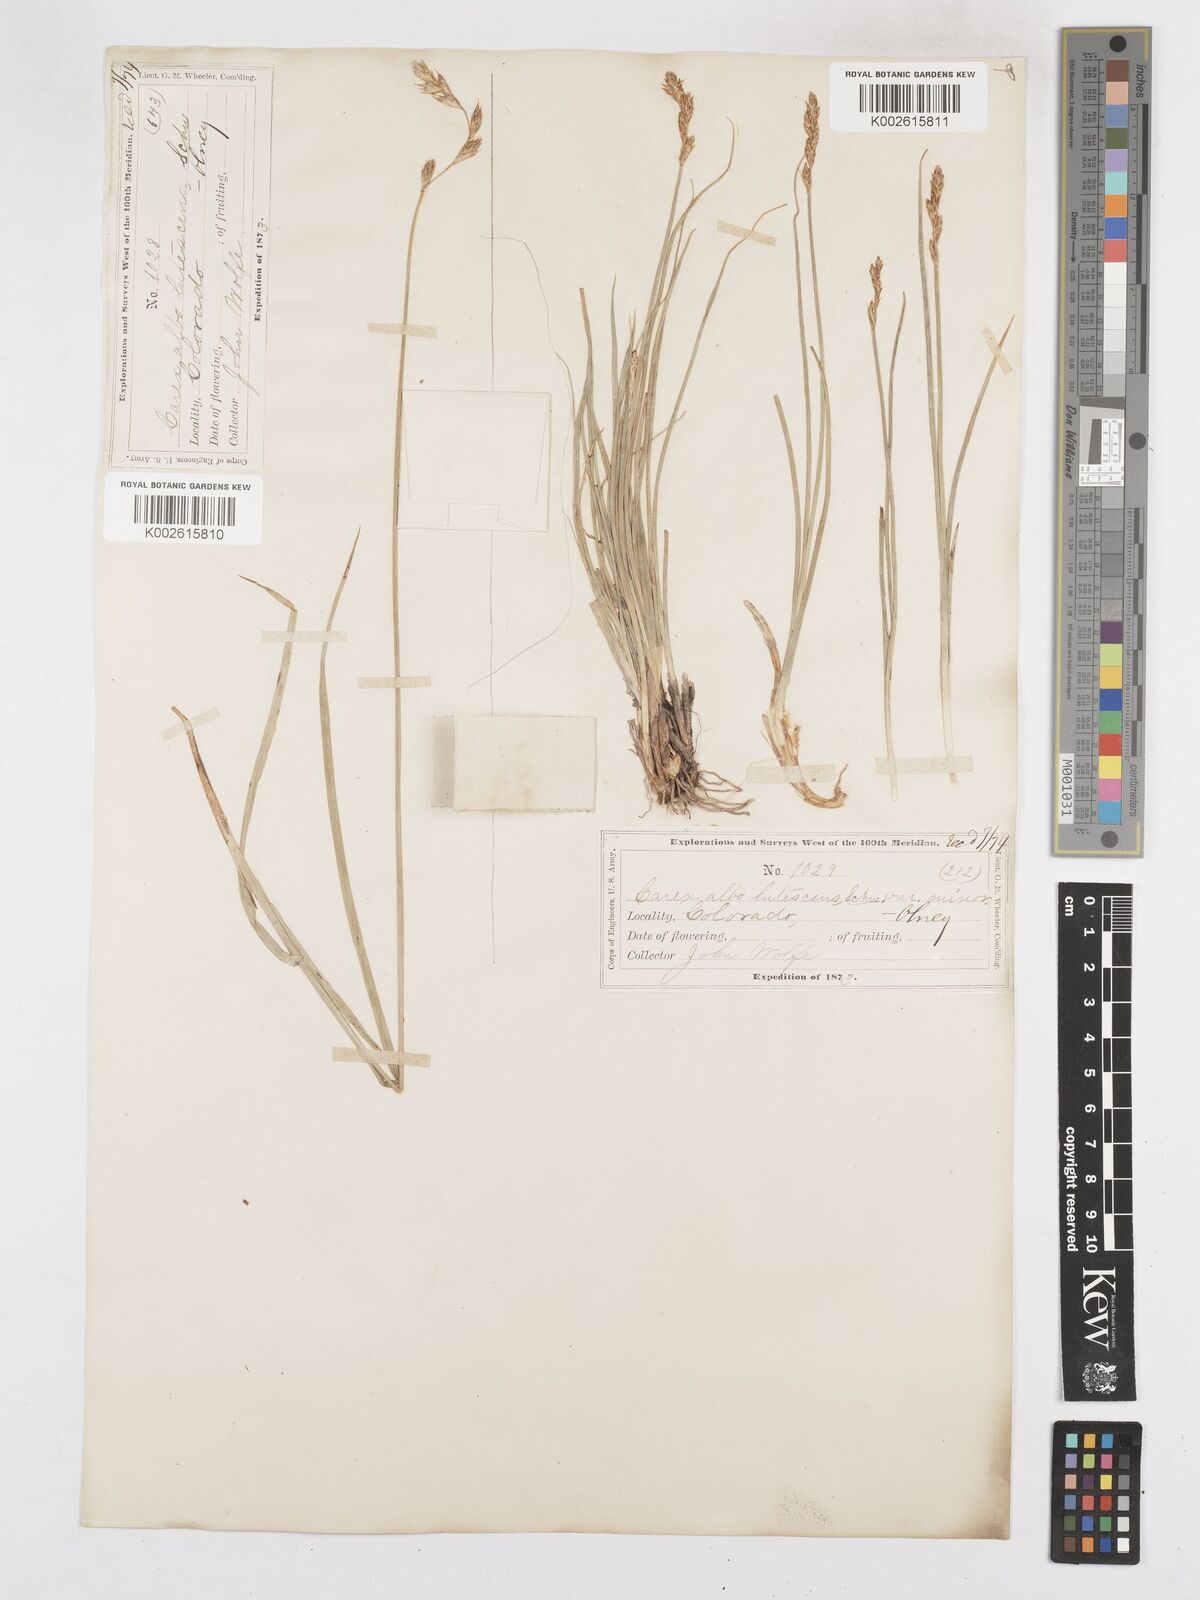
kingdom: Plantae
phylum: Tracheophyta
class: Liliopsida
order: Poales
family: Cyperaceae
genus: Carex
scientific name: Carex praticola
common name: Large-fruited oval sedge
